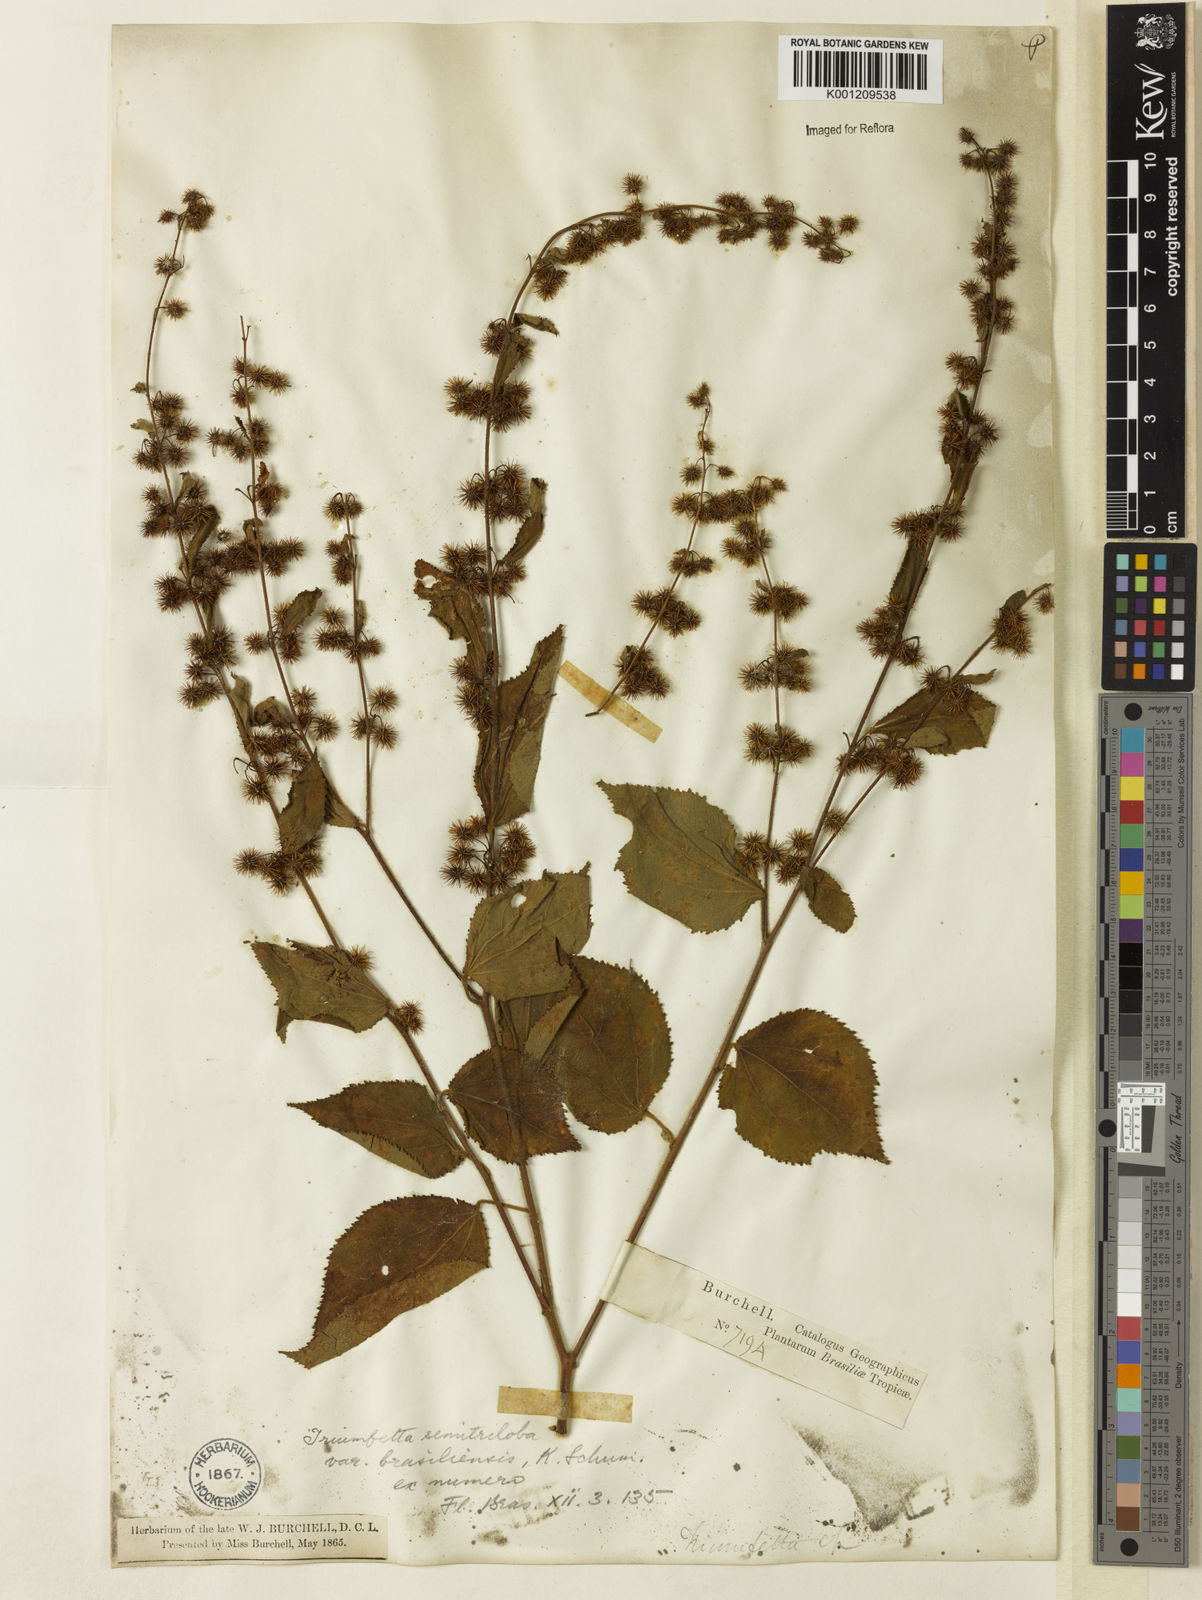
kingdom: Plantae
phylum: Tracheophyta
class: Magnoliopsida
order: Malvales
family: Malvaceae
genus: Triumfetta
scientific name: Triumfetta semitriloba
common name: Sacramento burbark
